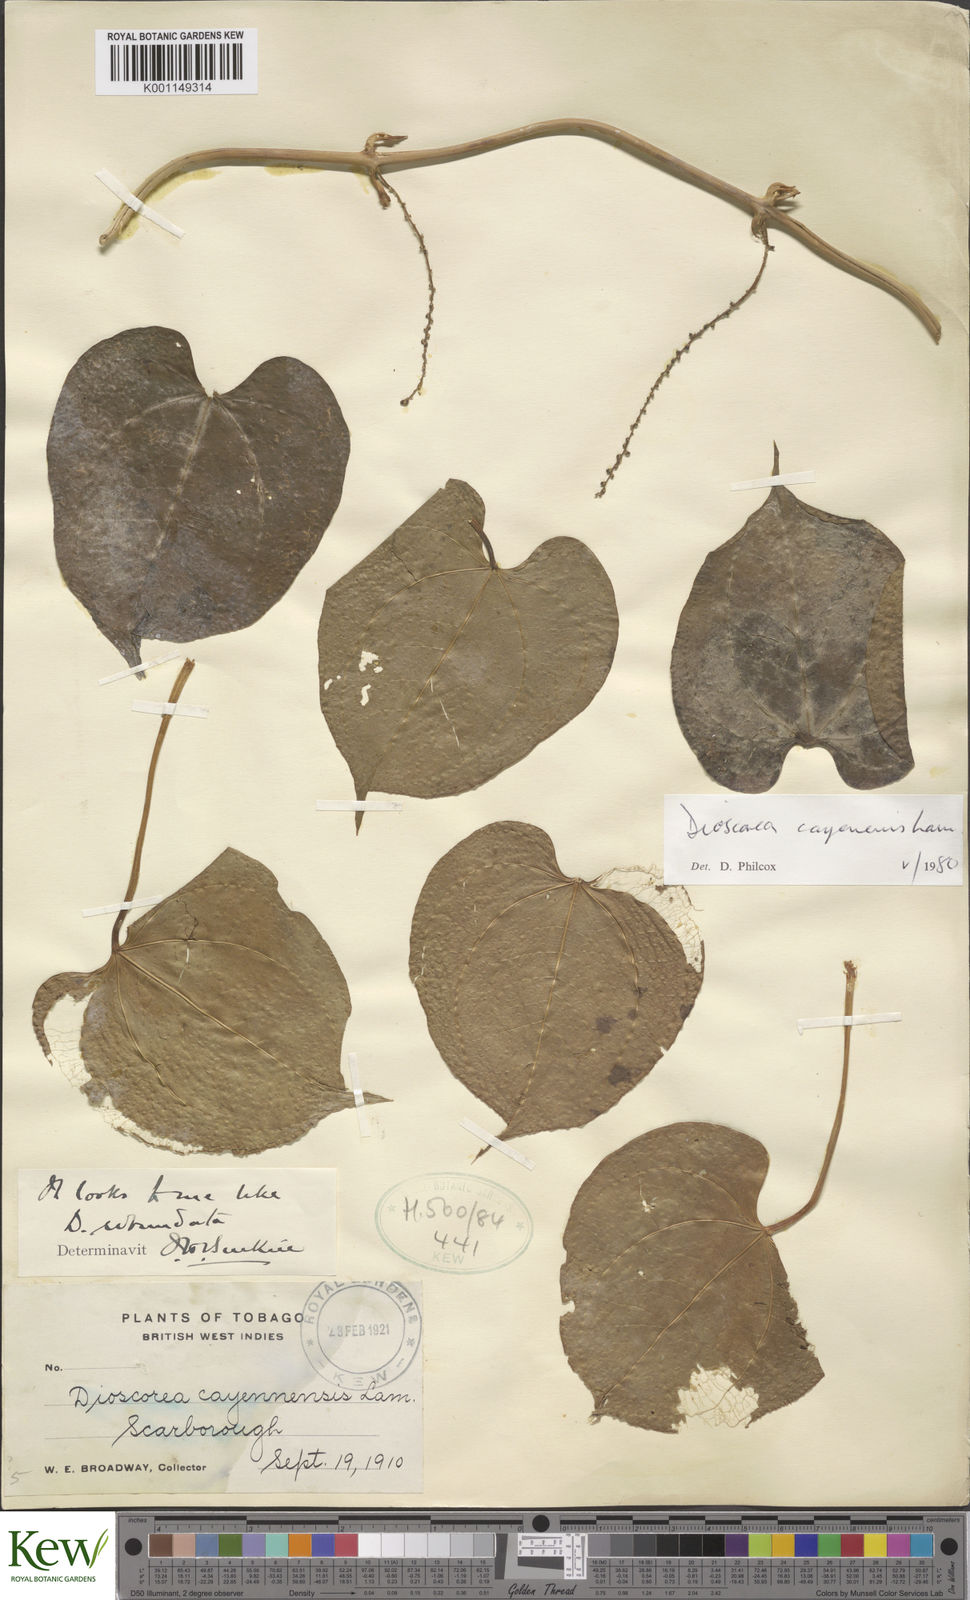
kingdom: Plantae
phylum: Tracheophyta
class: Liliopsida
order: Dioscoreales
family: Dioscoreaceae
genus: Dioscorea
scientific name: Dioscorea cayenensis
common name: Attoto yam
